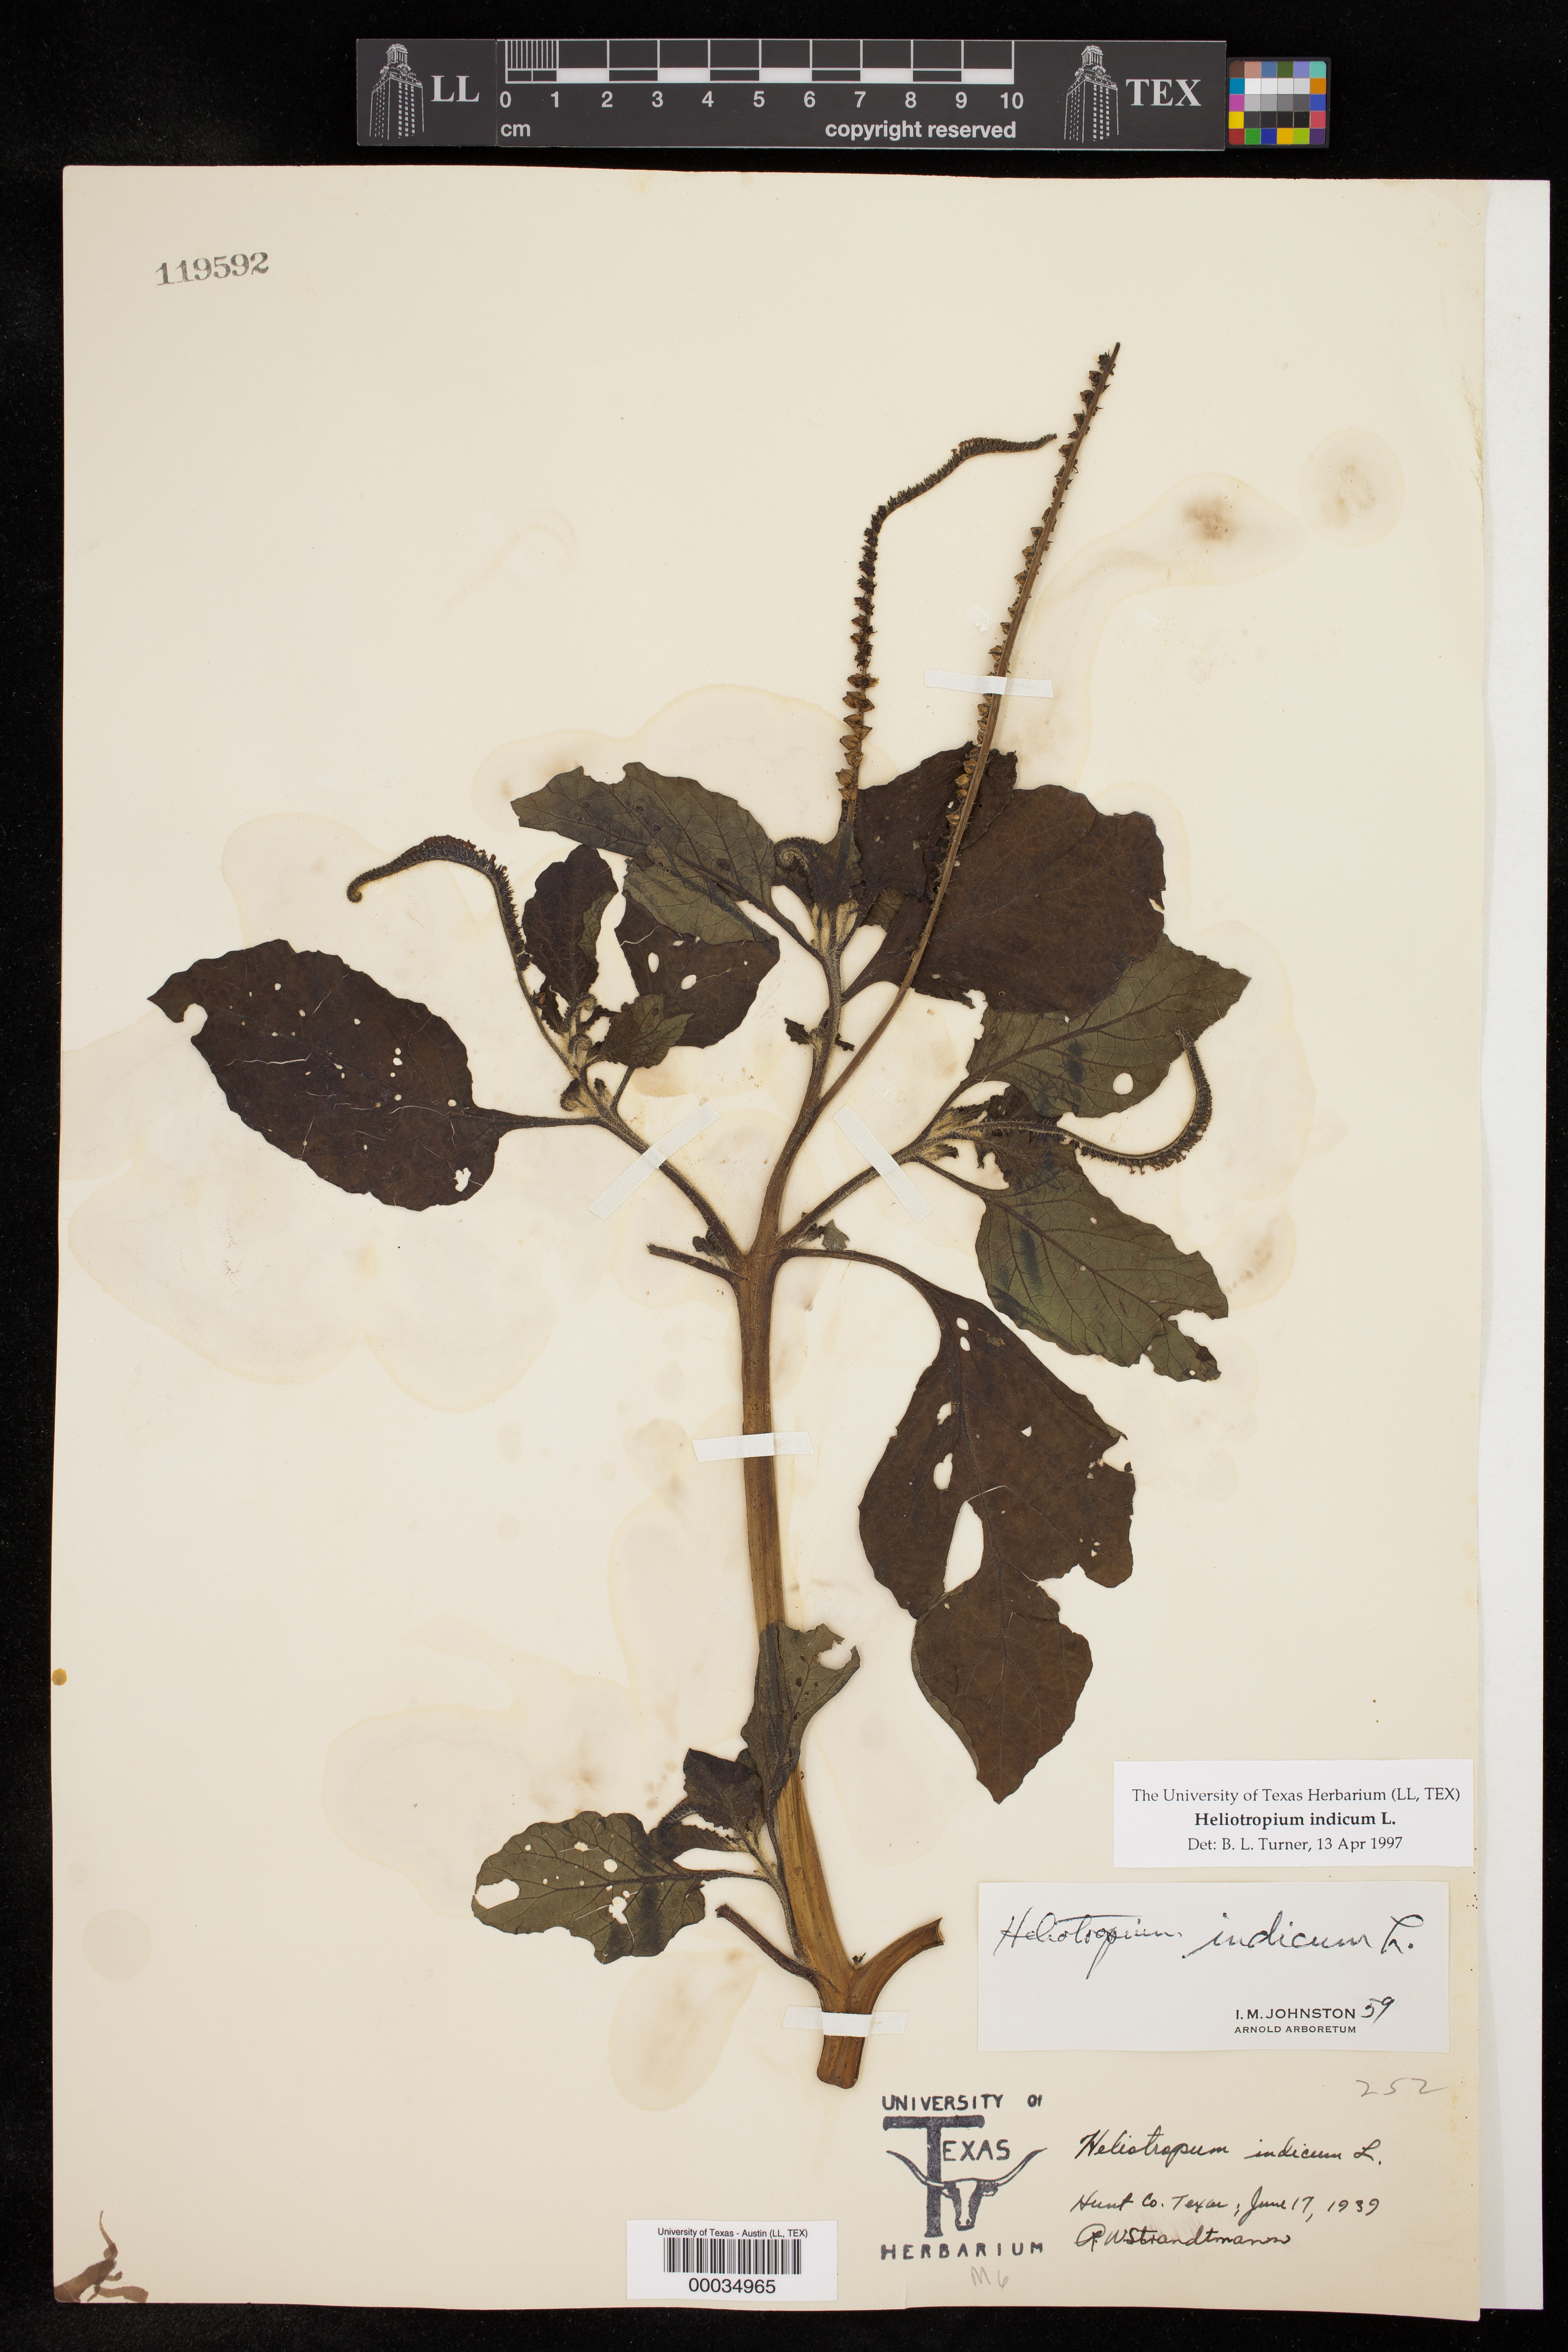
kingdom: Plantae
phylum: Tracheophyta
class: Magnoliopsida
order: Boraginales
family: Heliotropiaceae
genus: Heliotropium
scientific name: Heliotropium indicum
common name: Indian heliotrope
